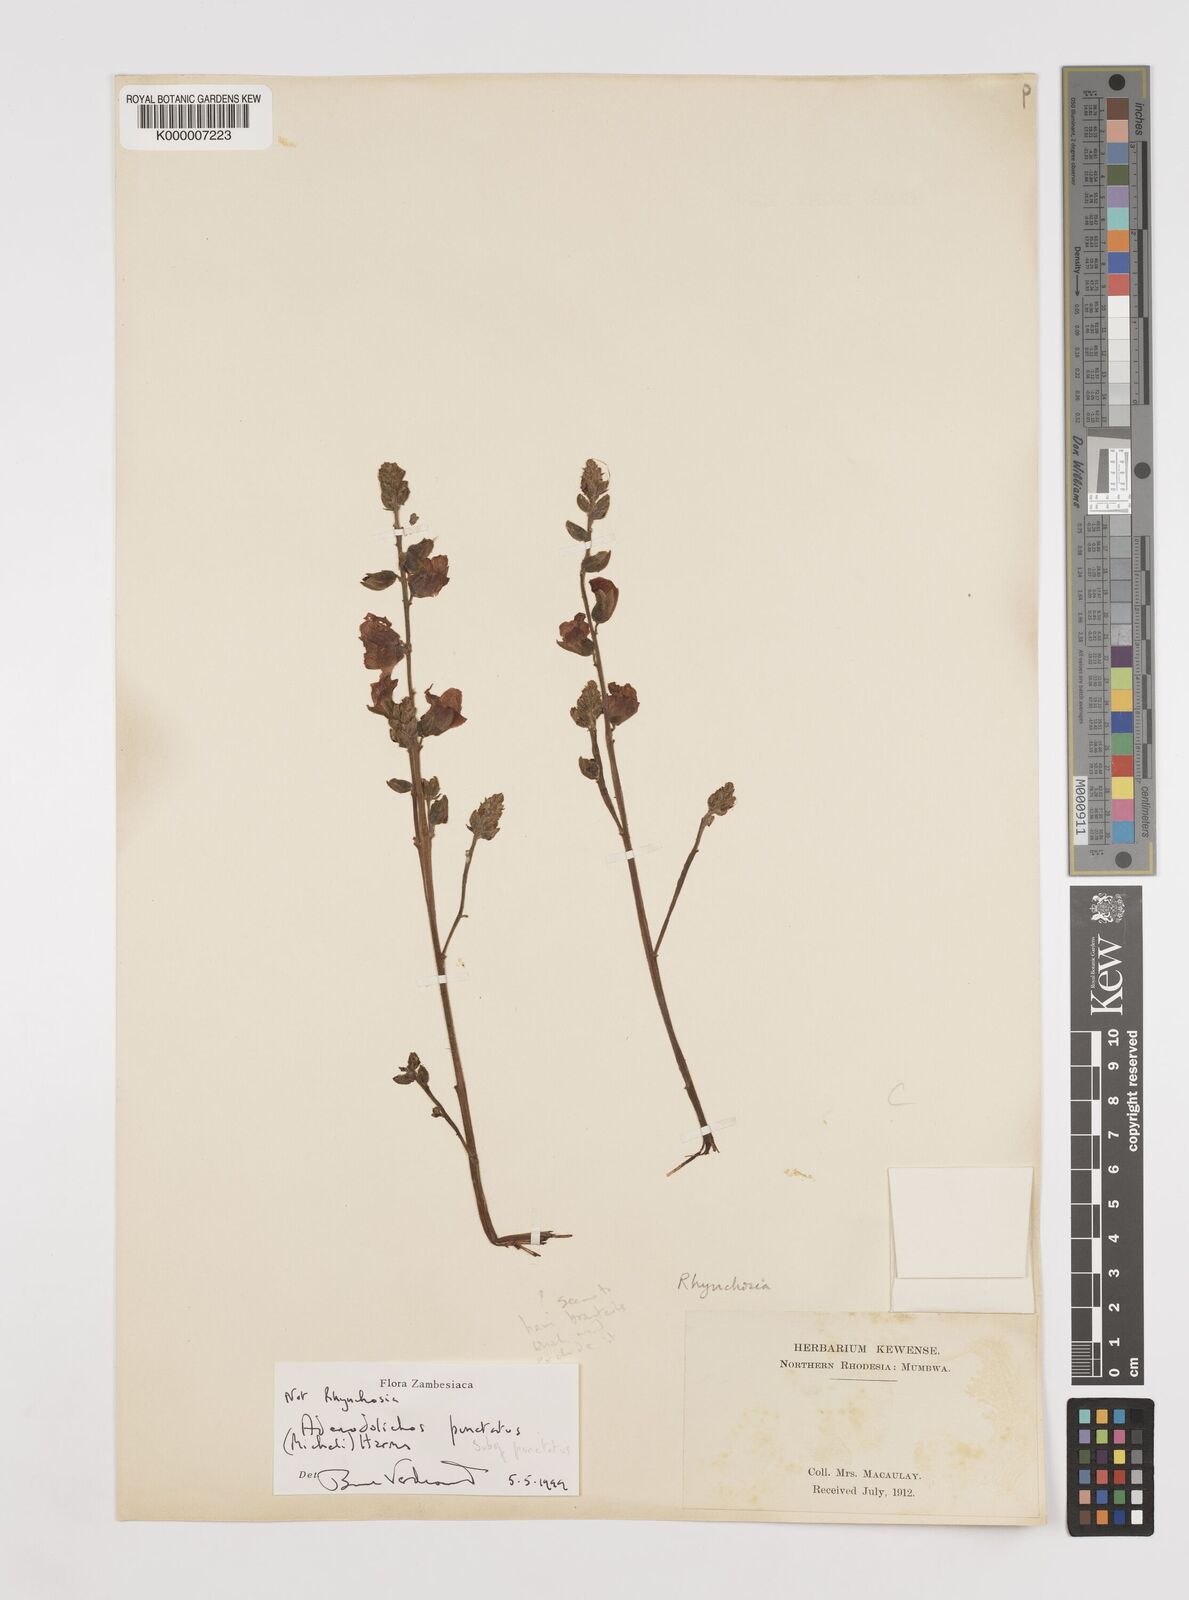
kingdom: Plantae
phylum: Tracheophyta
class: Magnoliopsida
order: Fabales
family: Fabaceae
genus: Adenodolichos
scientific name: Adenodolichos punctatus
